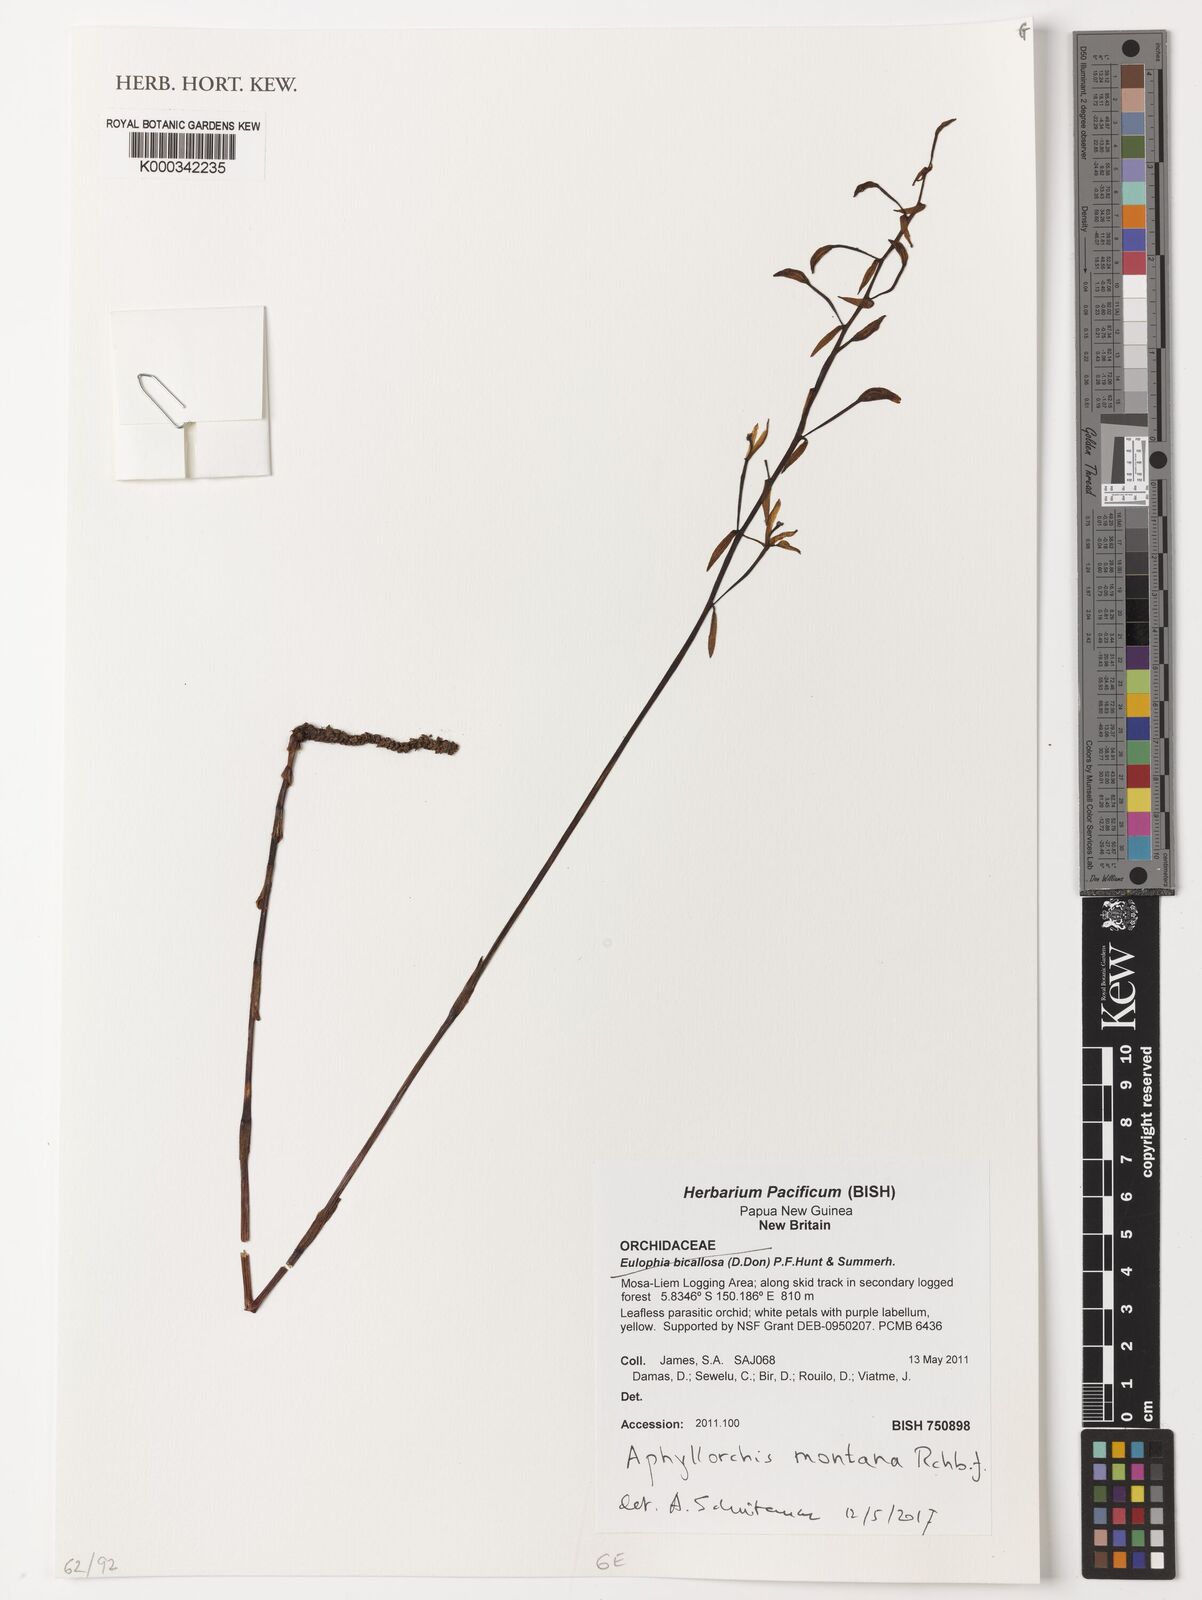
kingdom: Plantae
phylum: Tracheophyta
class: Liliopsida
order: Asparagales
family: Orchidaceae
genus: Aphyllorchis
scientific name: Aphyllorchis montana
